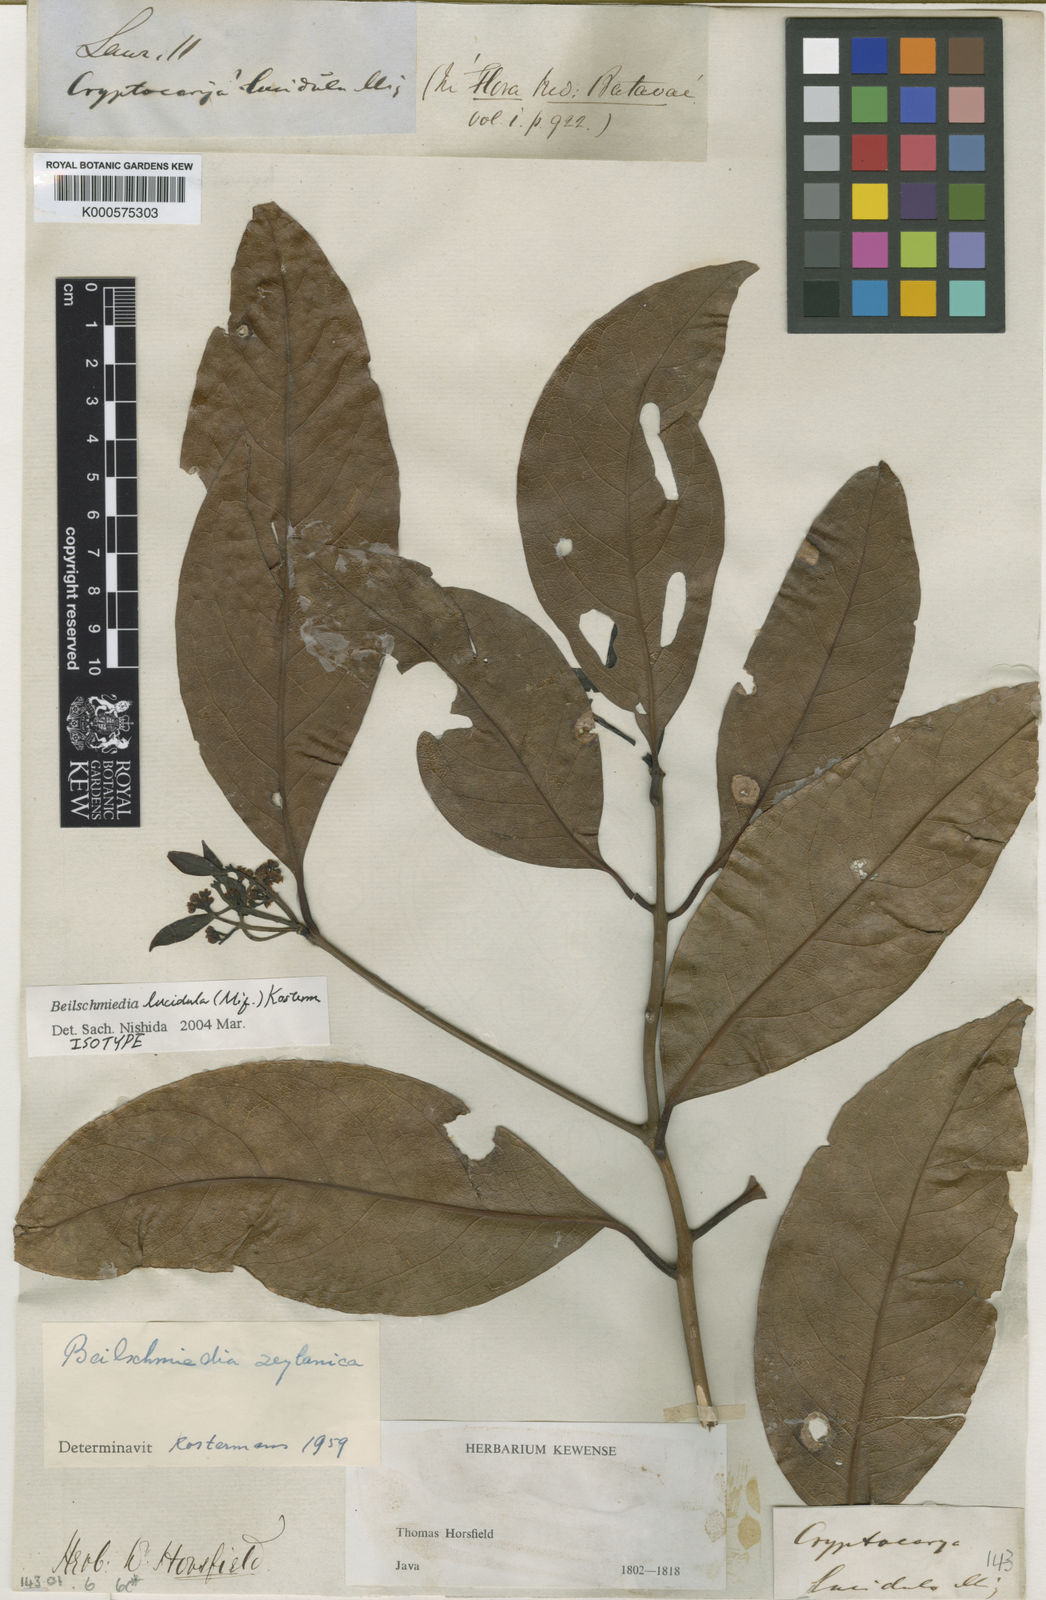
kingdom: Plantae
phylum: Tracheophyta
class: Magnoliopsida
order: Laurales
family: Lauraceae
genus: Beilschmiedia
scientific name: Beilschmiedia lucidula
